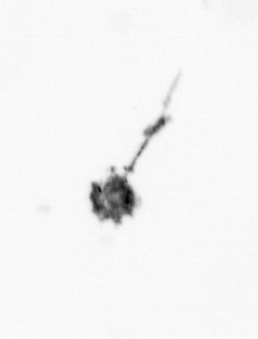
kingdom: Animalia
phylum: Arthropoda
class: Copepoda
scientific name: Copepoda
